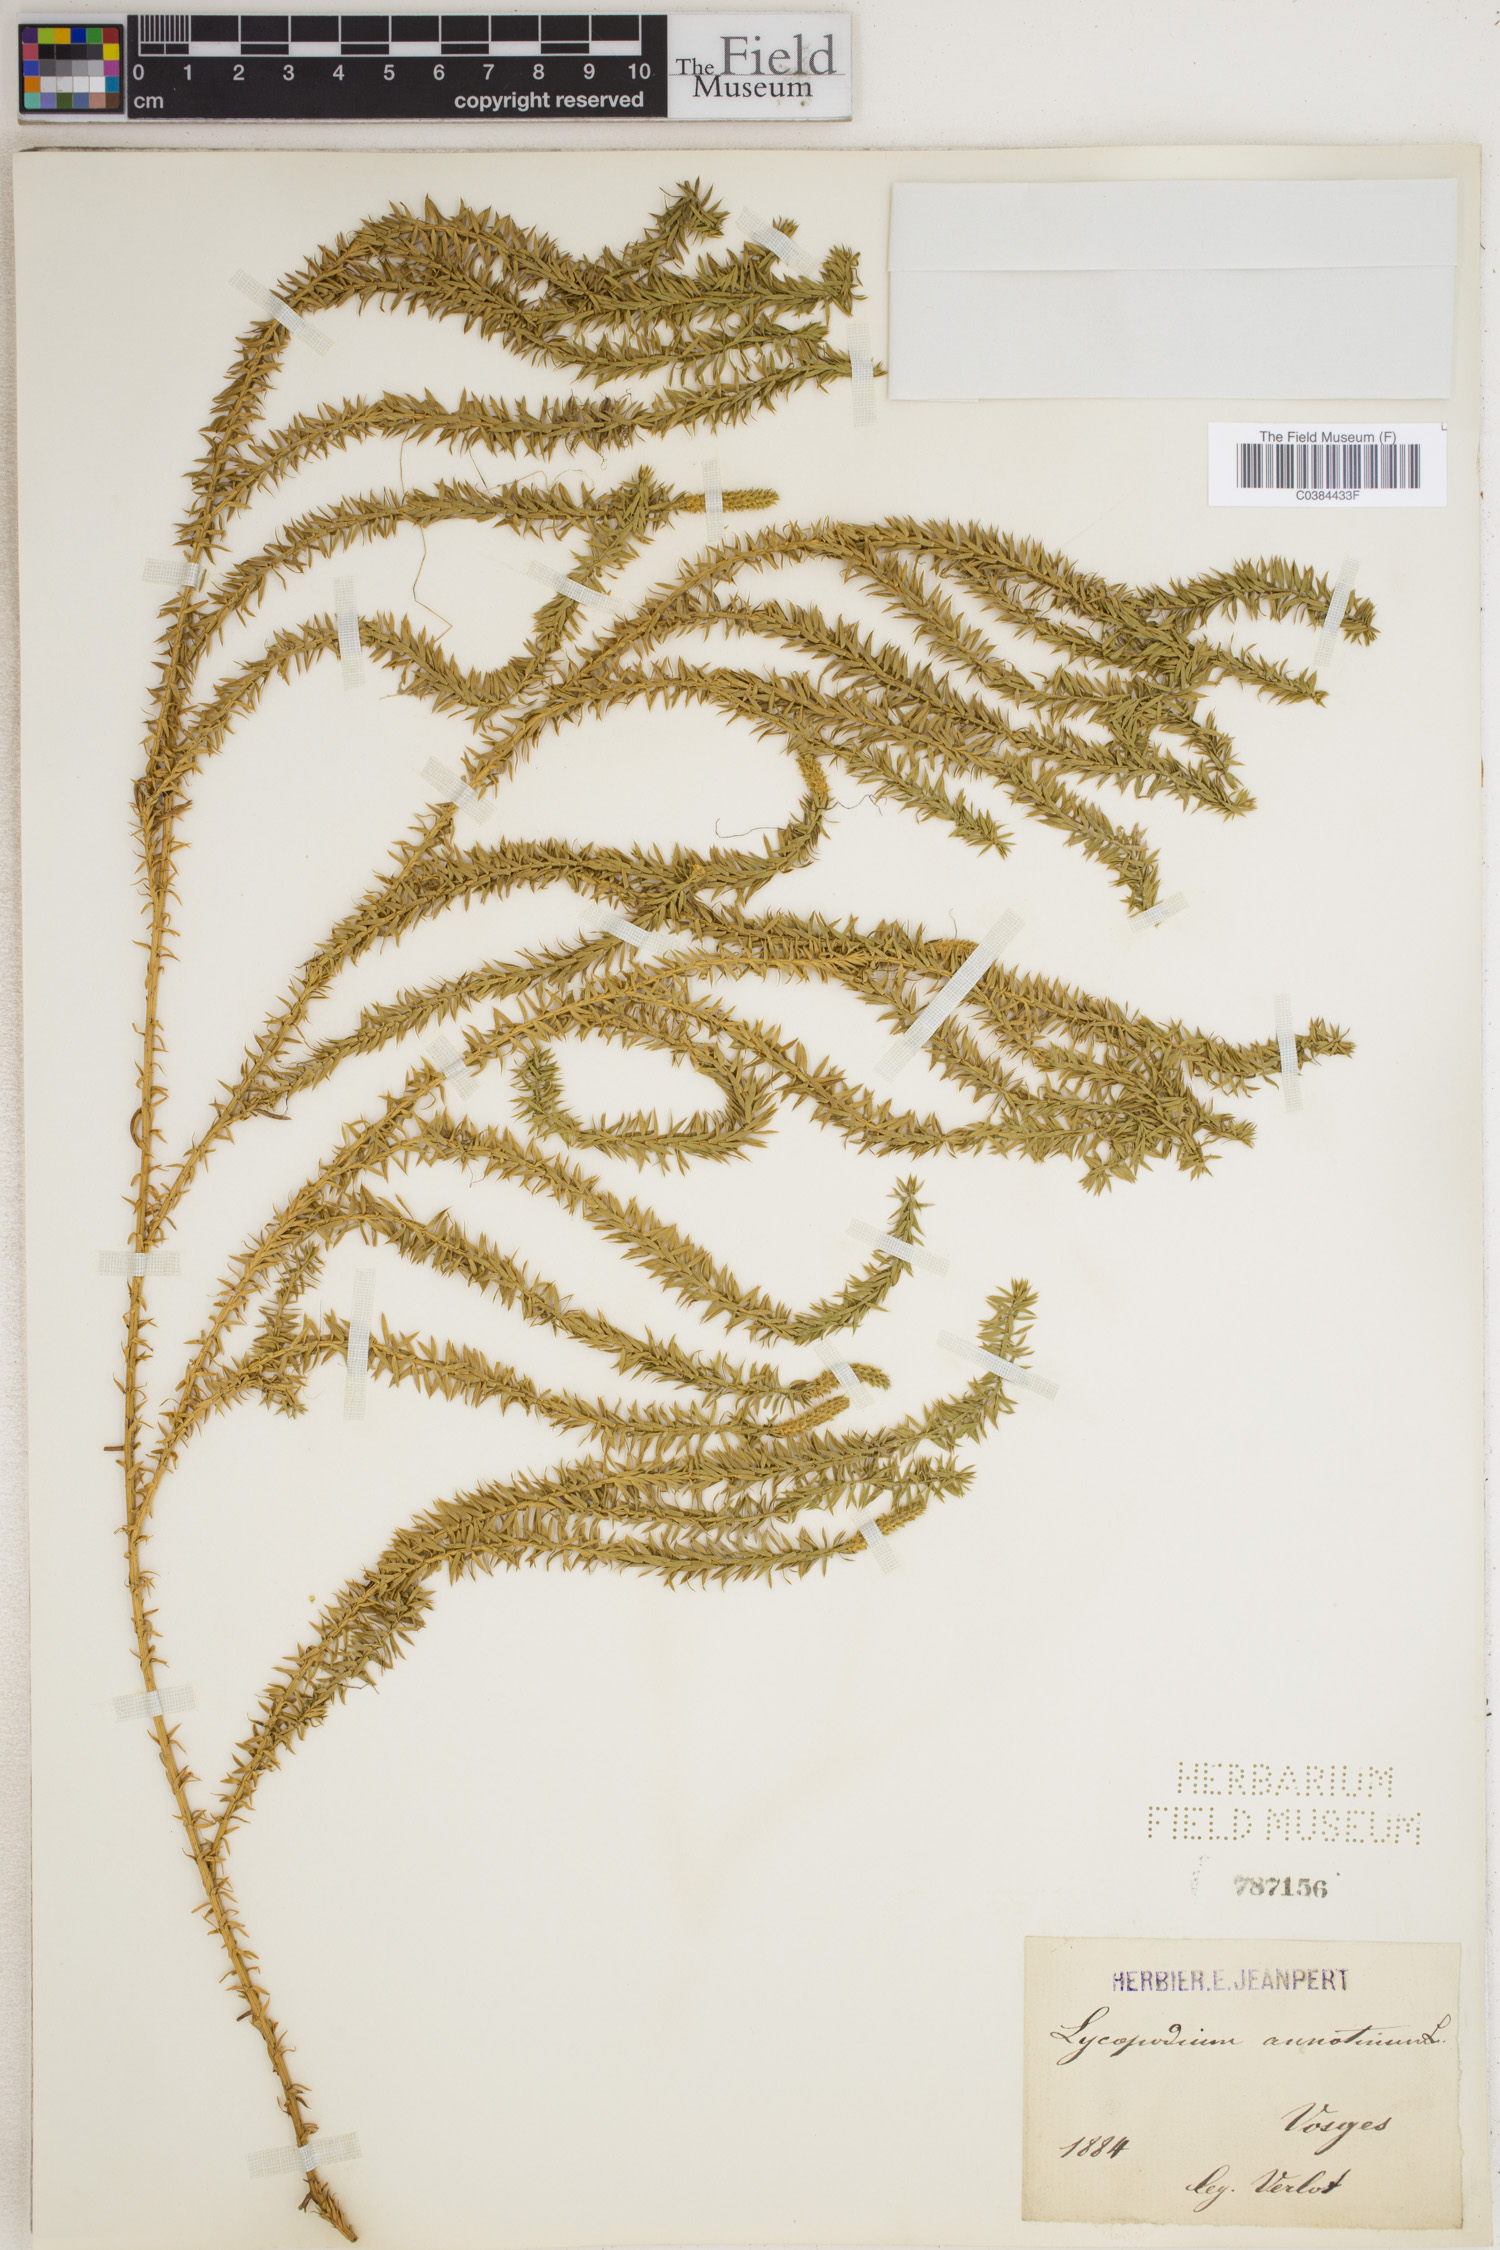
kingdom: Plantae
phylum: Tracheophyta
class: Lycopodiopsida
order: Lycopodiales
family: Lycopodiaceae
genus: Spinulum
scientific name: Spinulum annotinum
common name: Interrupted club-moss
